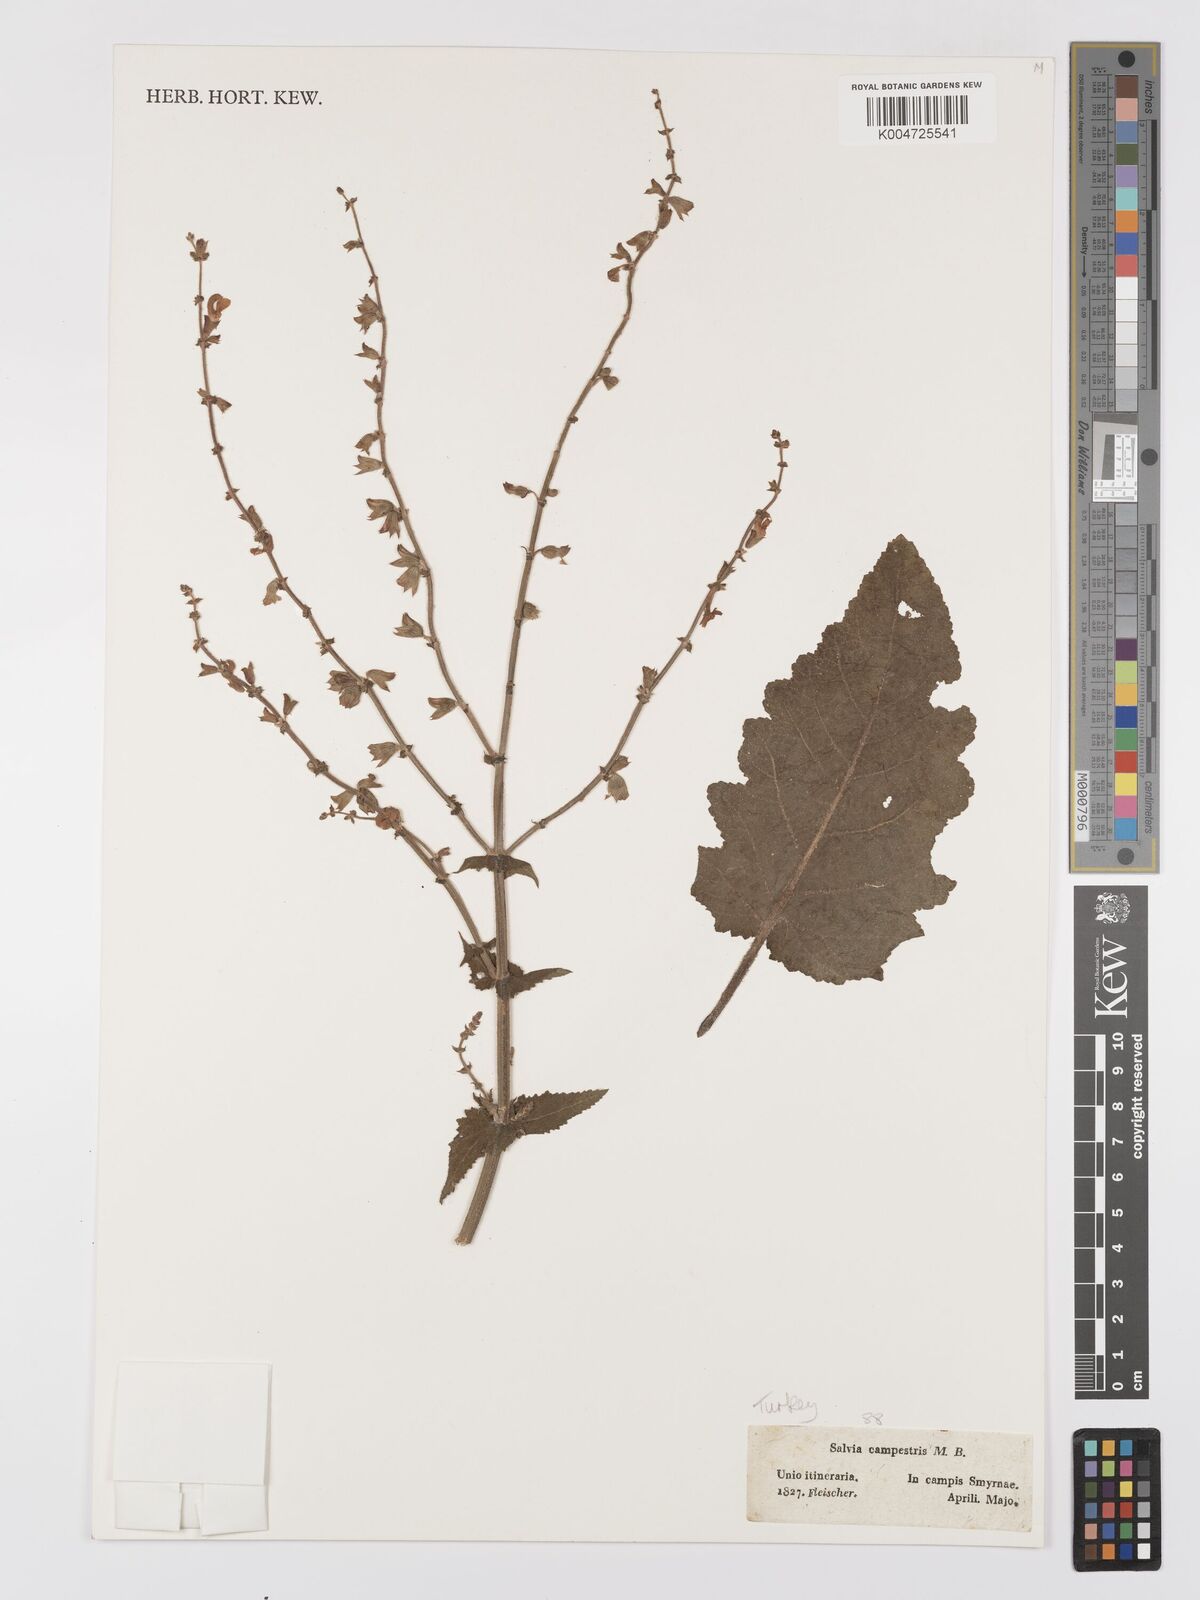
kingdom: Plantae
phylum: Tracheophyta
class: Magnoliopsida
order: Lamiales
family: Lamiaceae
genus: Salvia
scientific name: Salvia
